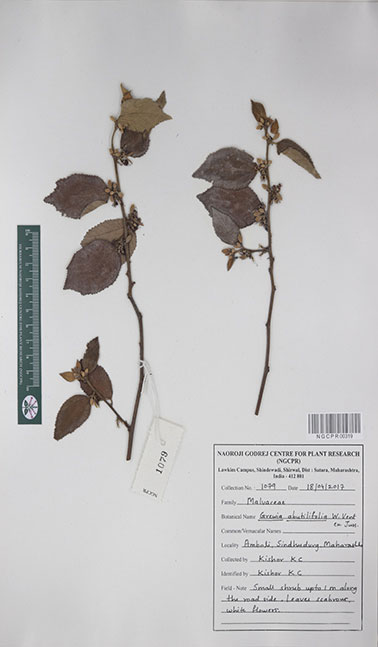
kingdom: Plantae
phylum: Tracheophyta
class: Magnoliopsida
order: Malvales
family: Malvaceae
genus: Grewia
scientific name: Grewia abutilifolia
